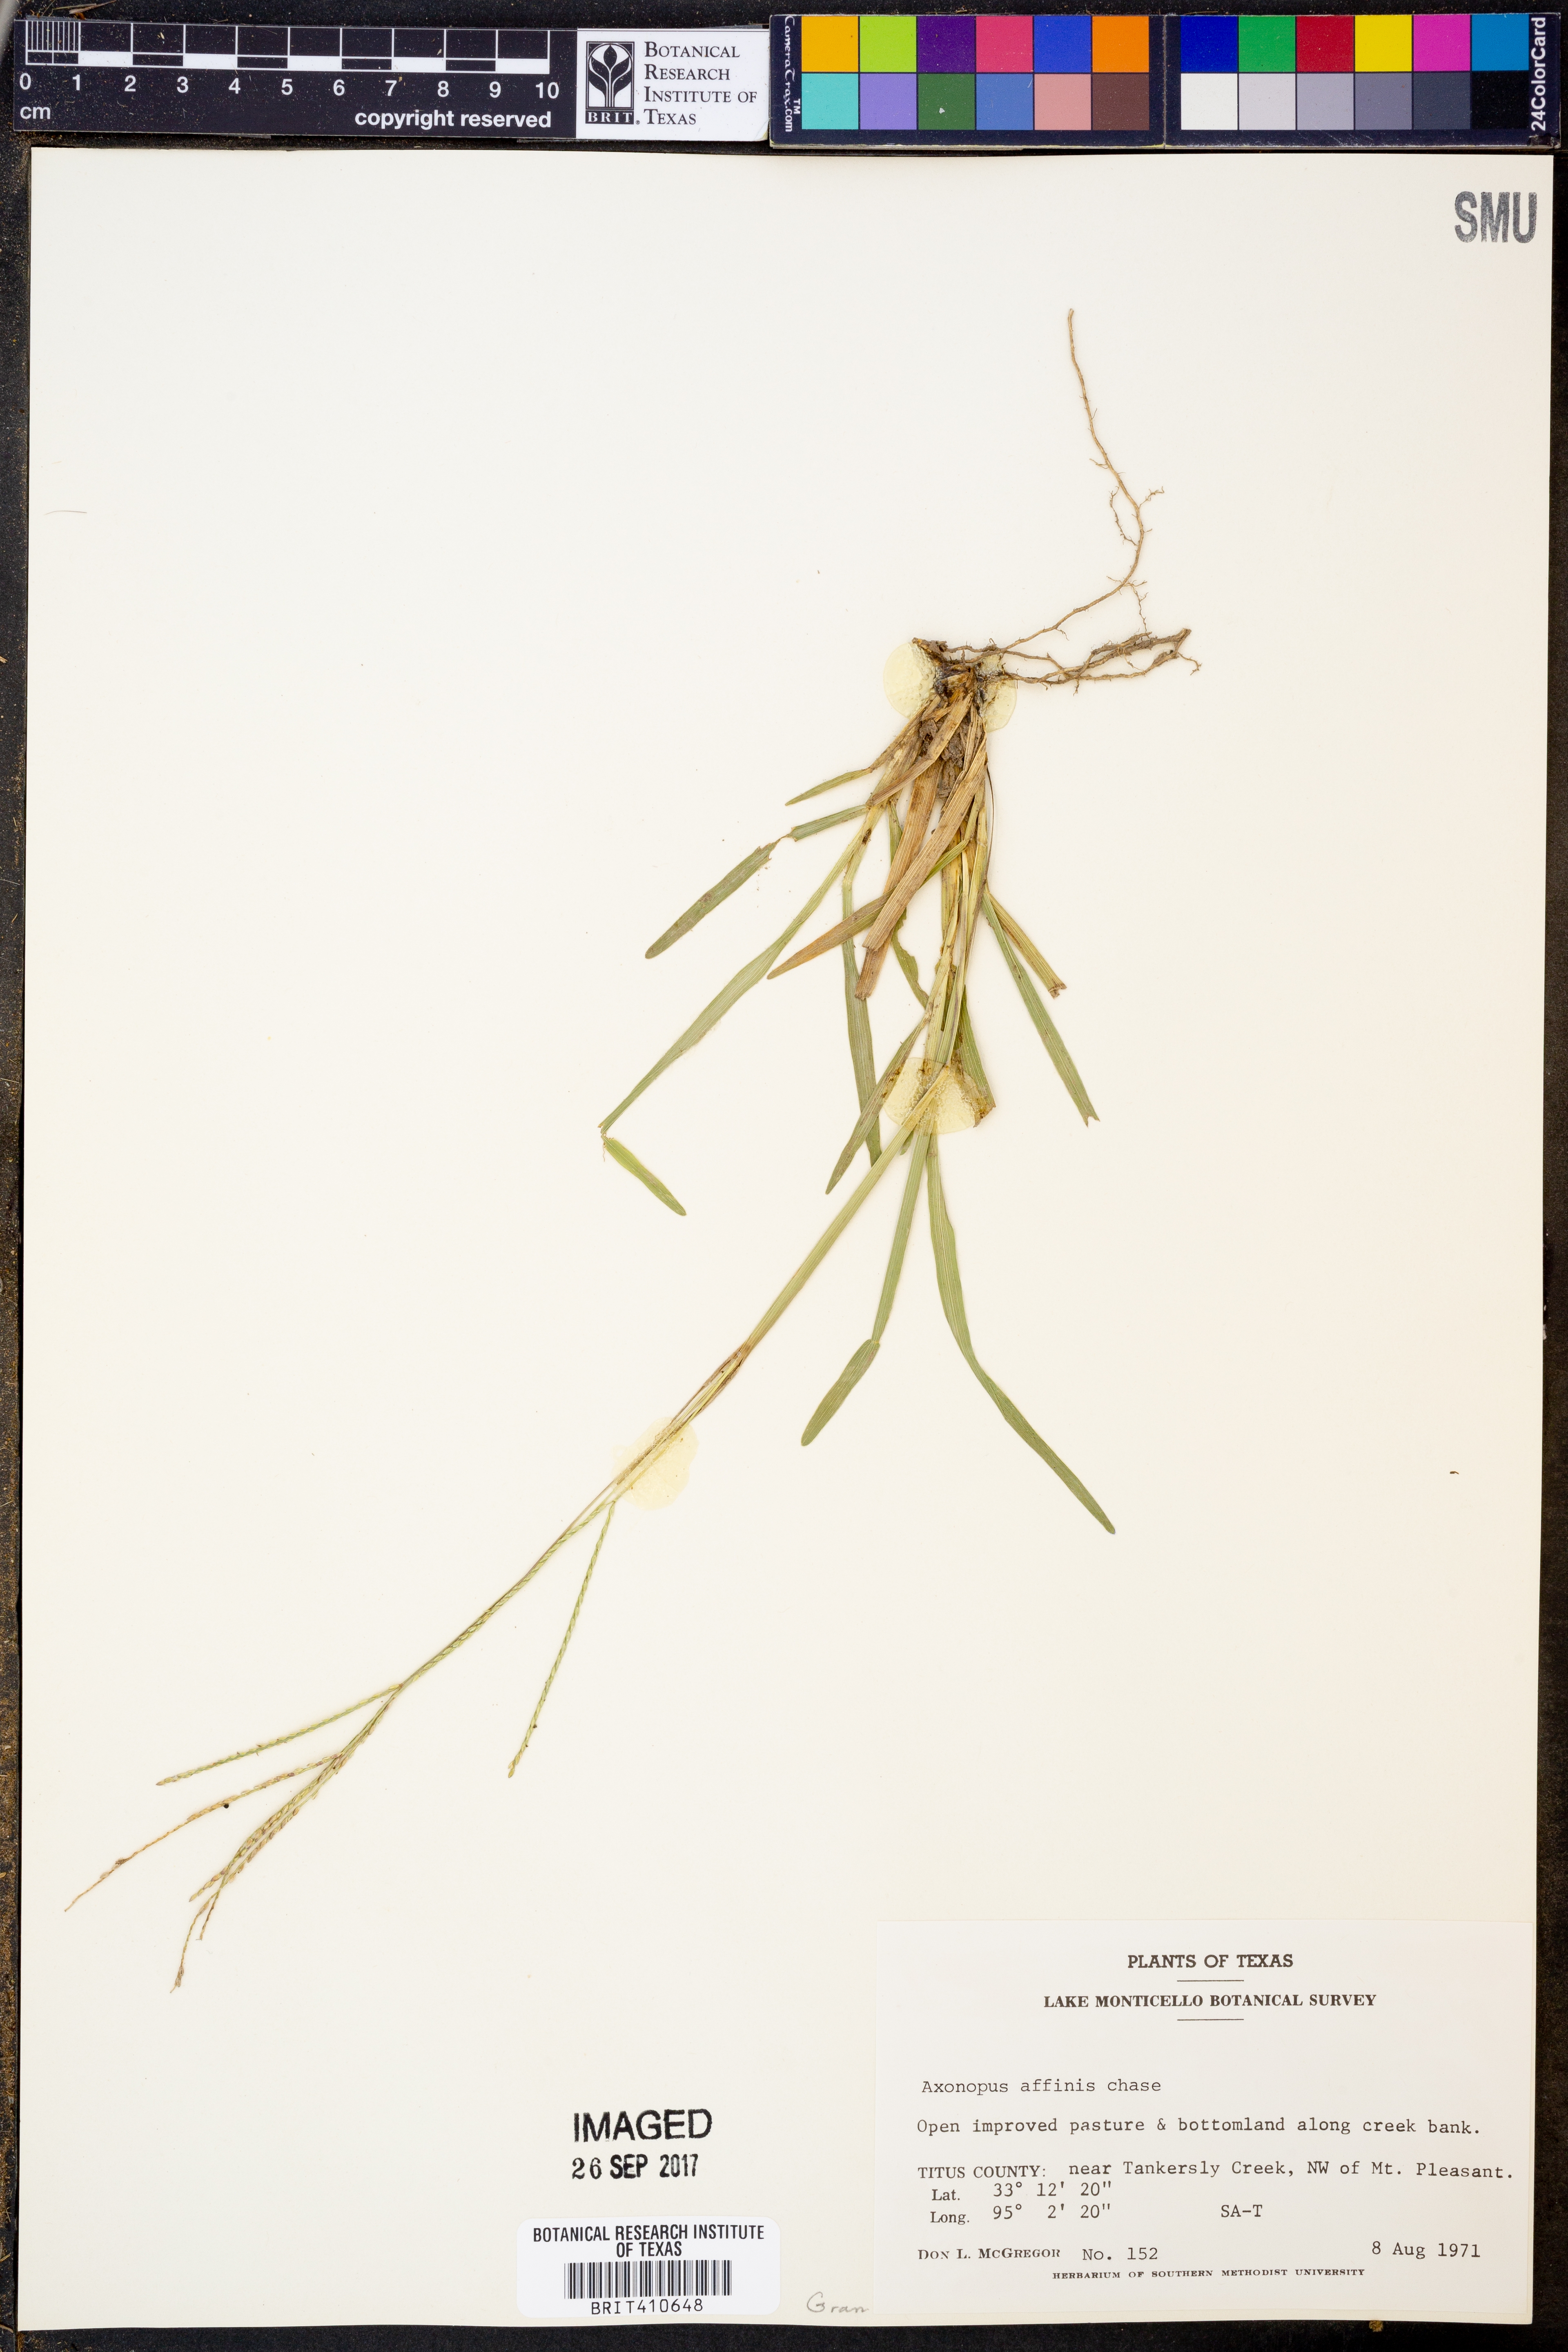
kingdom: Plantae
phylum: Tracheophyta
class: Liliopsida
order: Poales
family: Poaceae
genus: Axonopus
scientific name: Axonopus fissifolius
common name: Common carpetgrass
